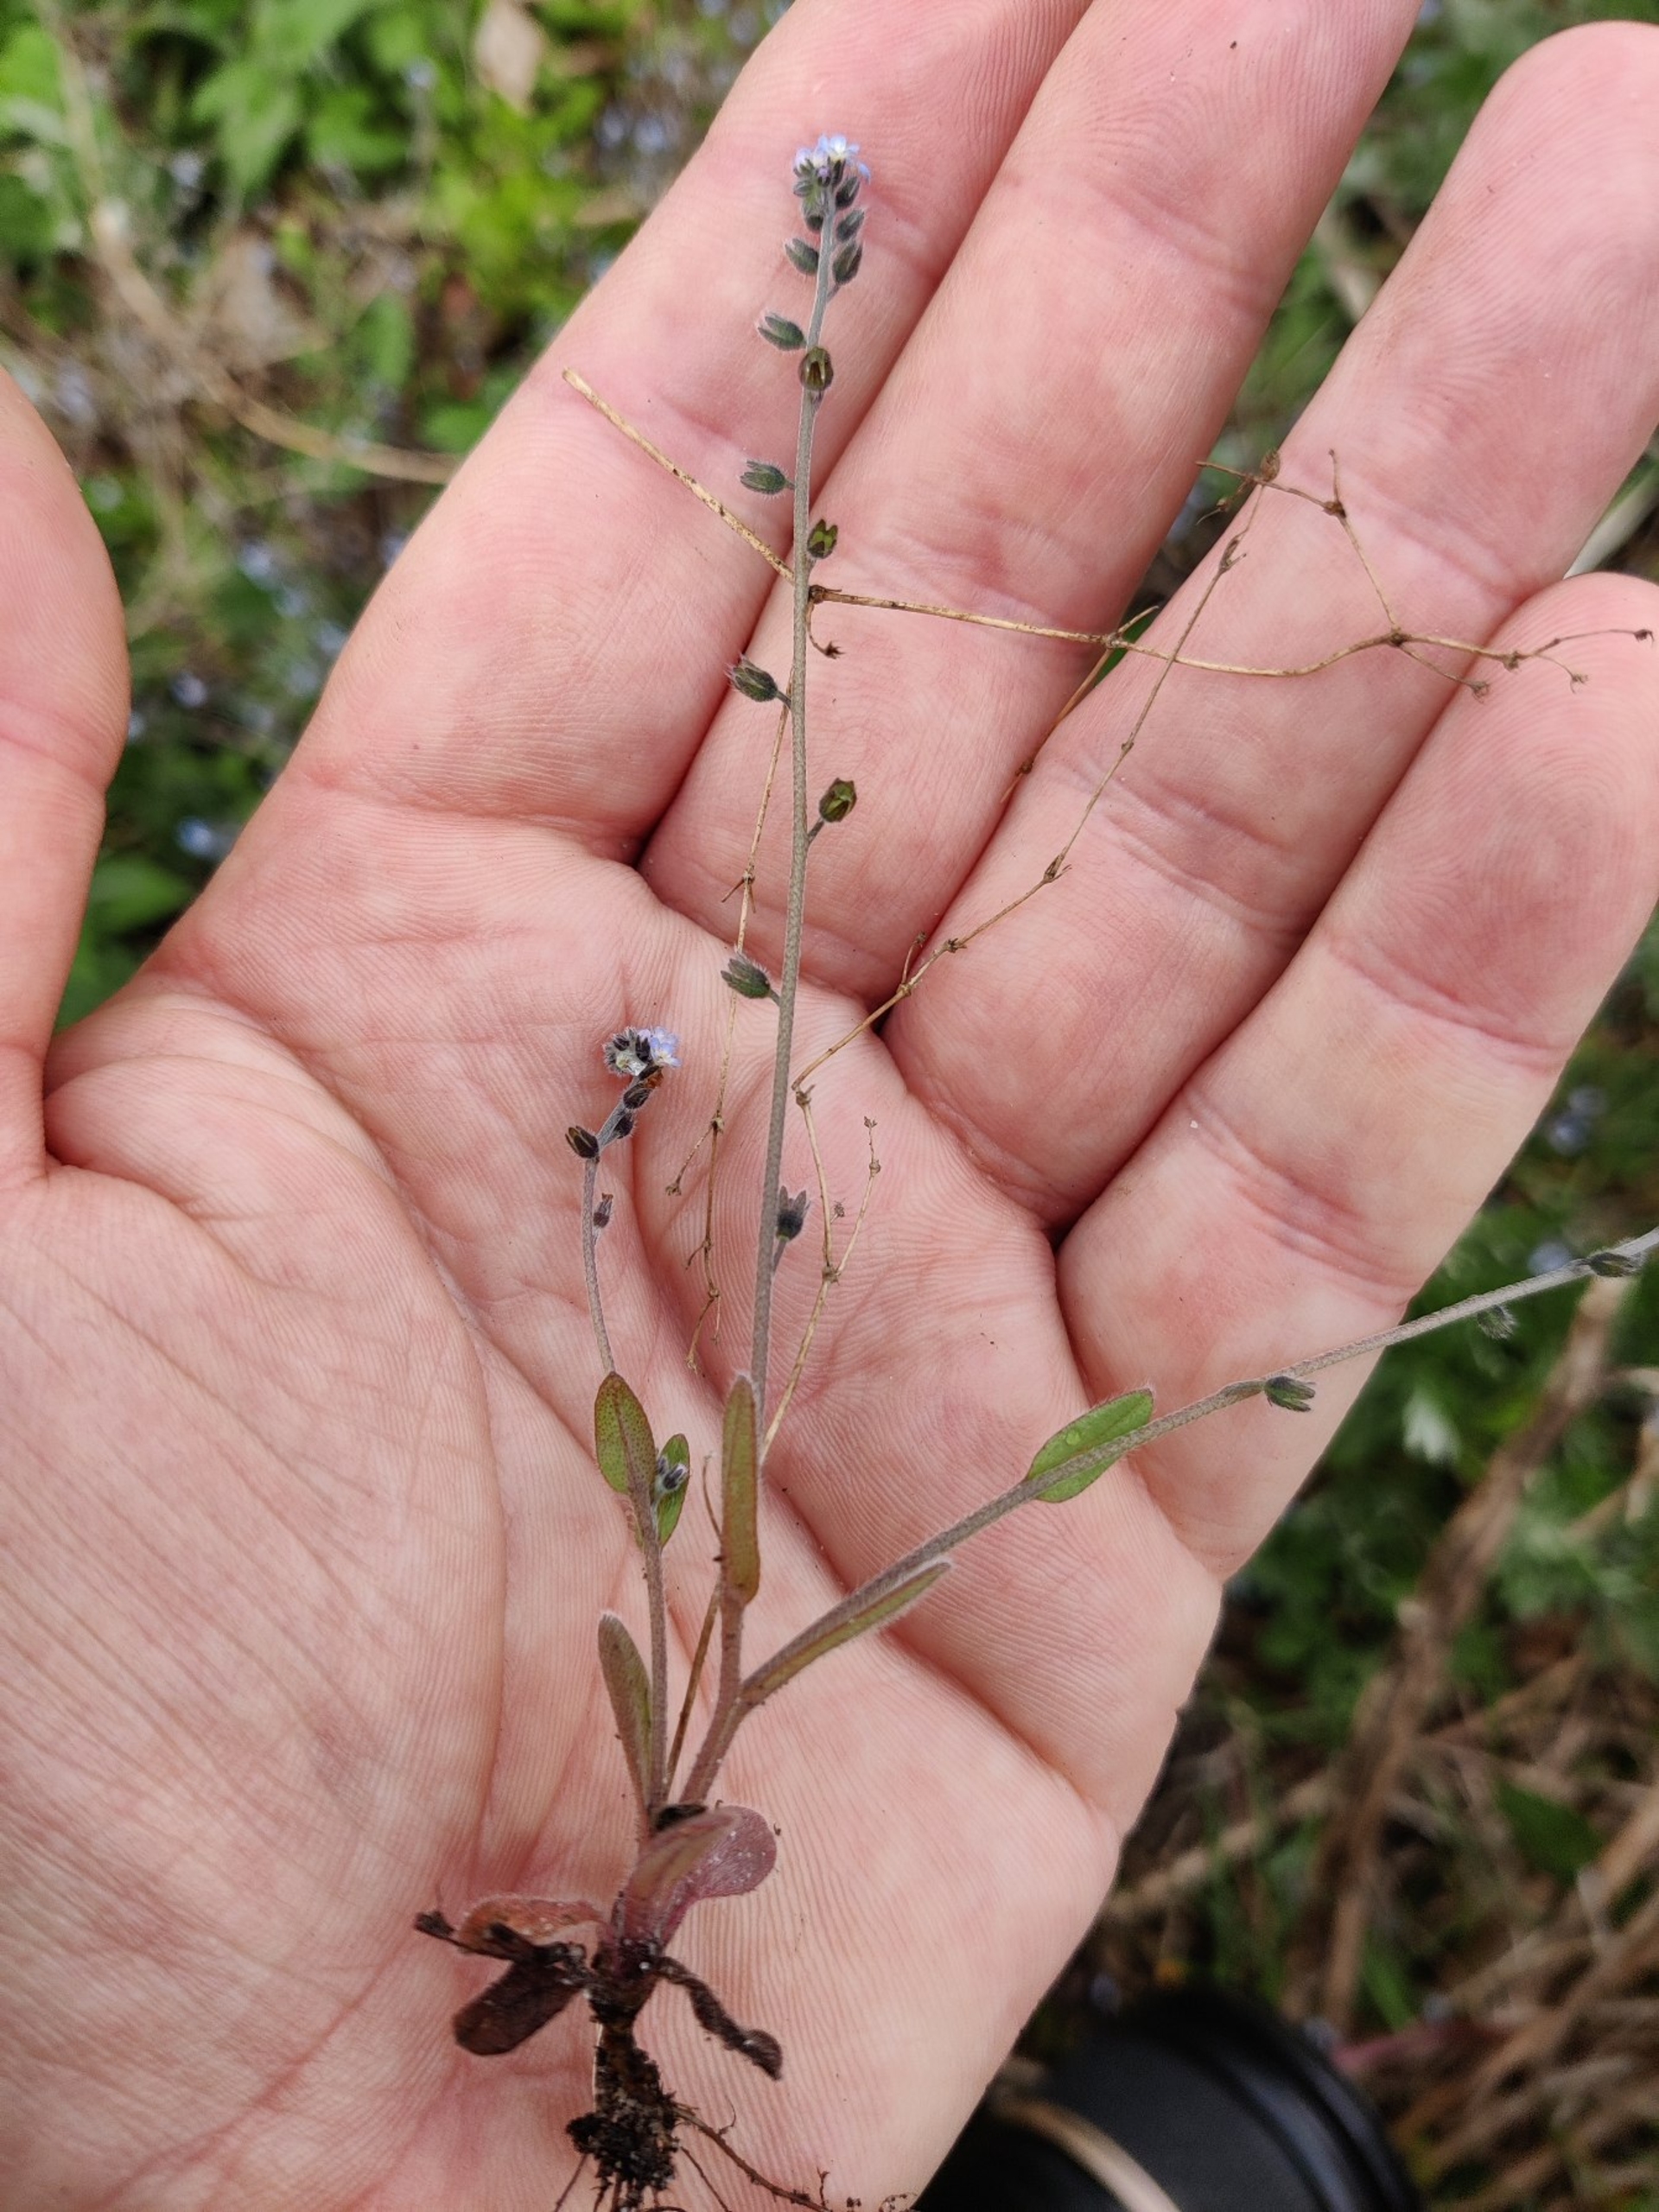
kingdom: Plantae
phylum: Tracheophyta
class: Magnoliopsida
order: Boraginales
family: Boraginaceae
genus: Myosotis
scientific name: Myosotis ramosissima
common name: Bakke-forglemmigej
